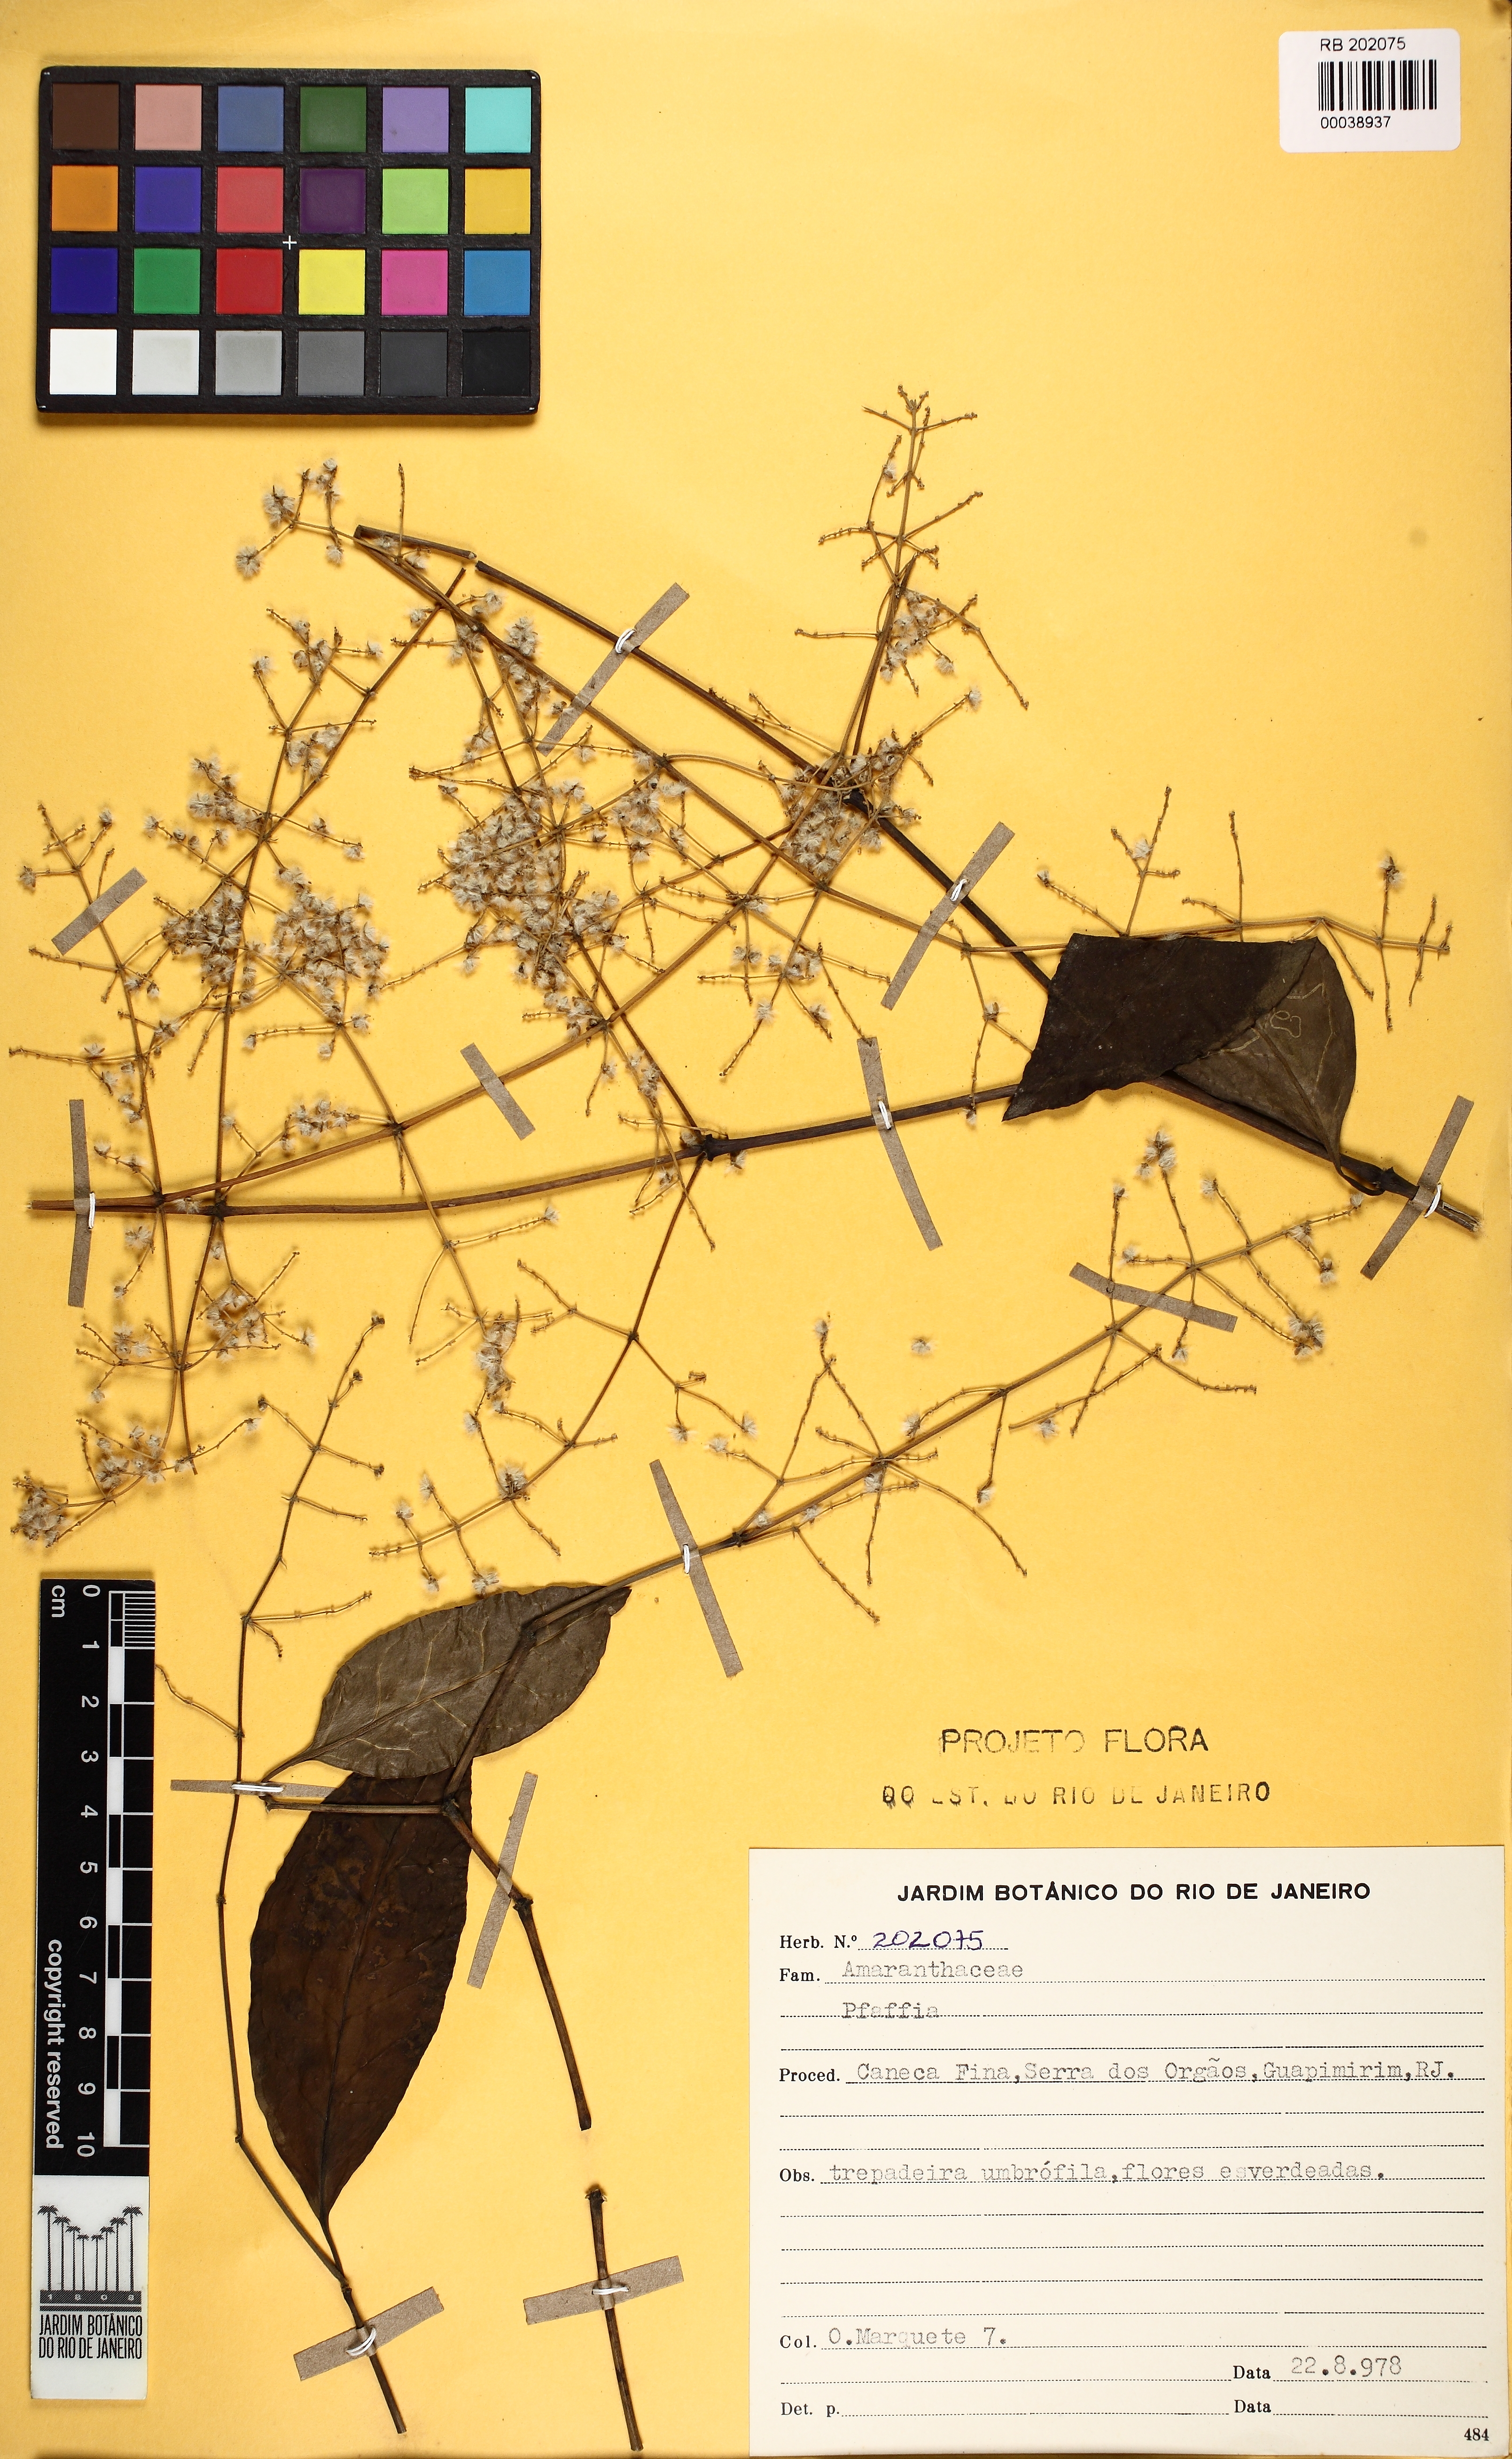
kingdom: Plantae
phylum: Tracheophyta
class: Magnoliopsida
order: Caryophyllales
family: Amaranthaceae
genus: Pfaffia
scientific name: Pfaffia
